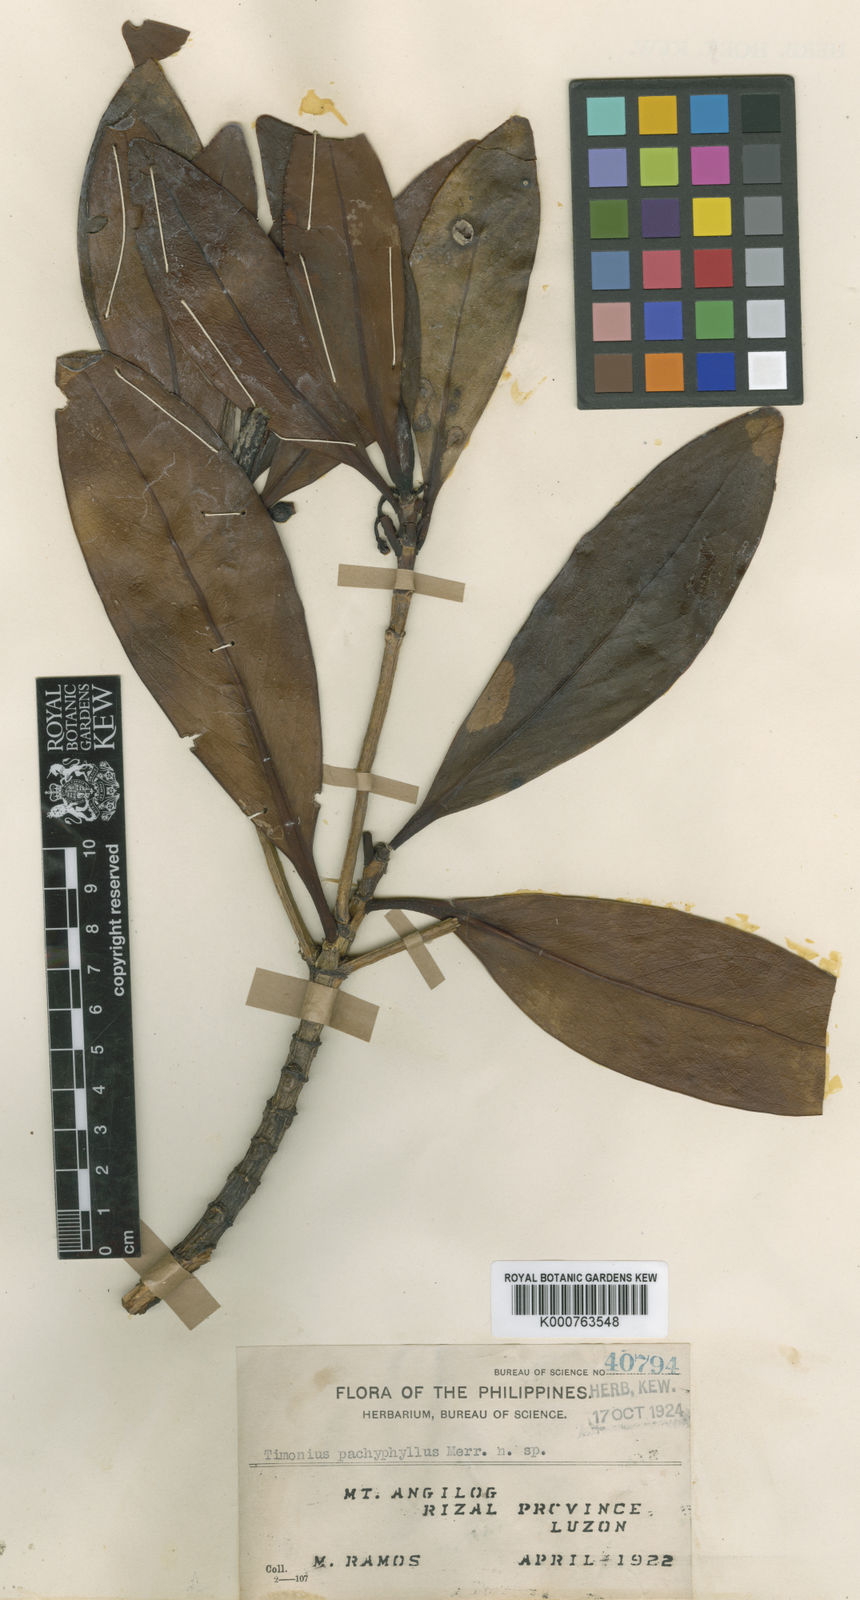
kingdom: Plantae
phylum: Tracheophyta
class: Magnoliopsida
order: Gentianales
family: Rubiaceae
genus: Timonius
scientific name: Timonius pachyphyllus
